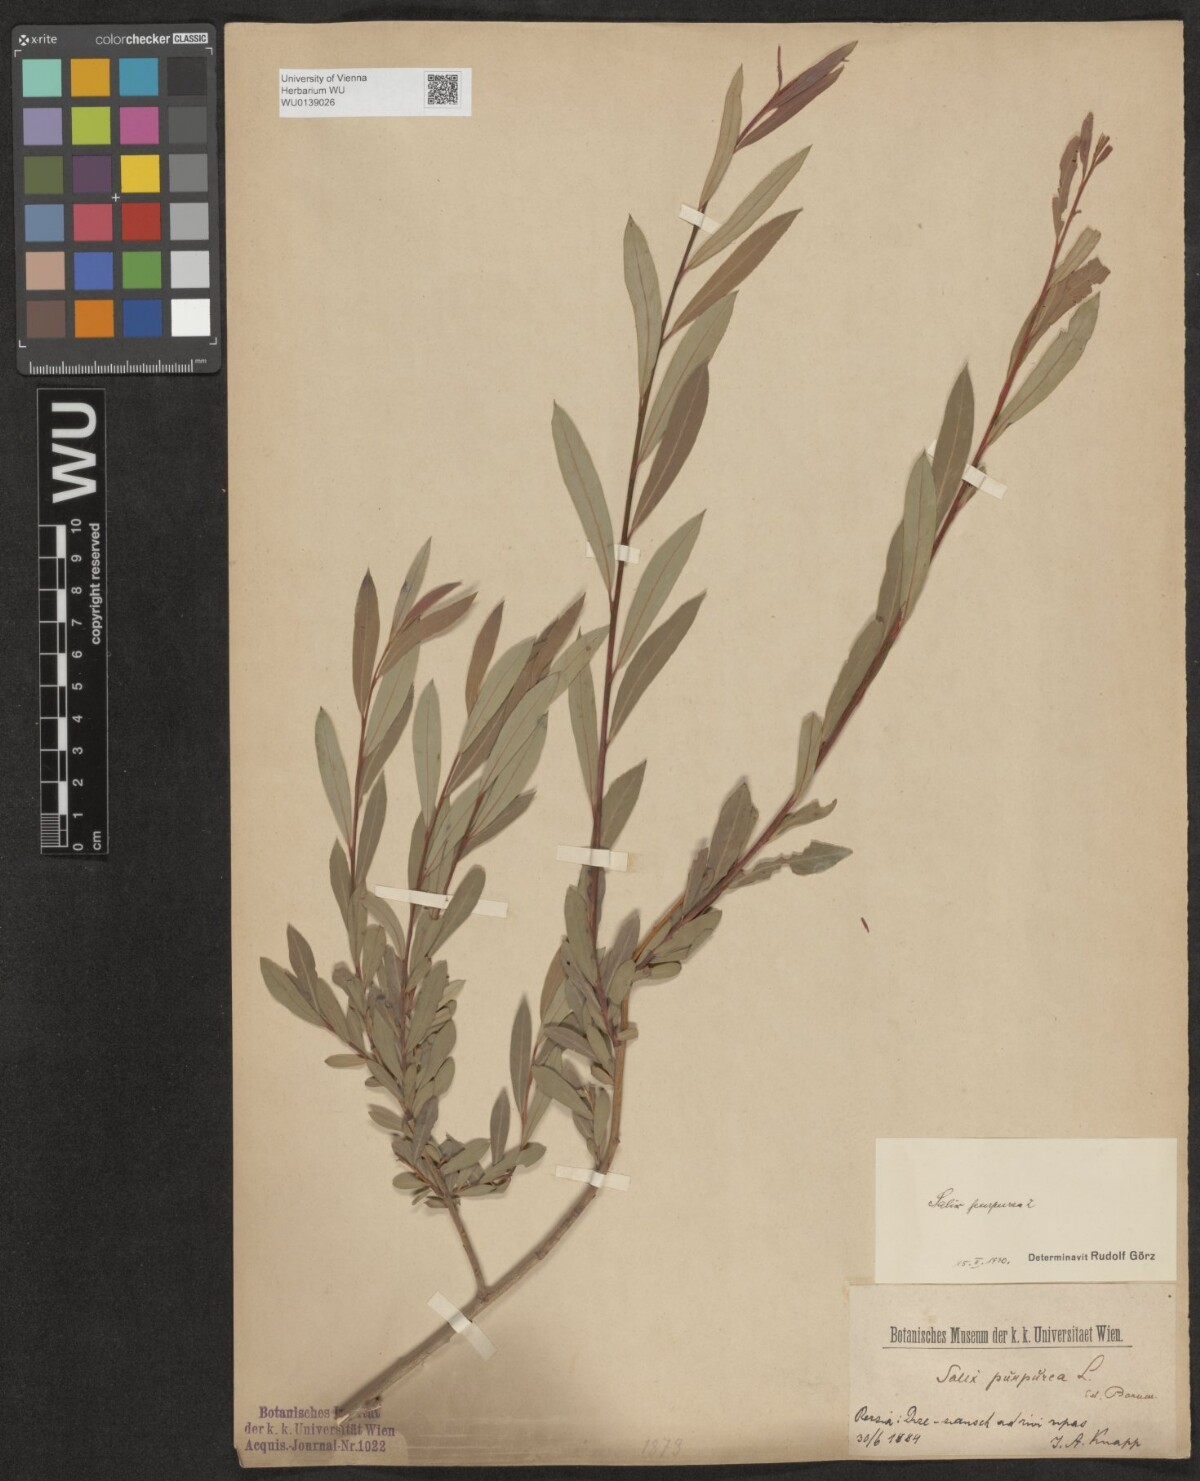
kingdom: Plantae
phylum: Tracheophyta
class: Magnoliopsida
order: Malpighiales
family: Salicaceae
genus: Salix
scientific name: Salix purpurea
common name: Purple willow
